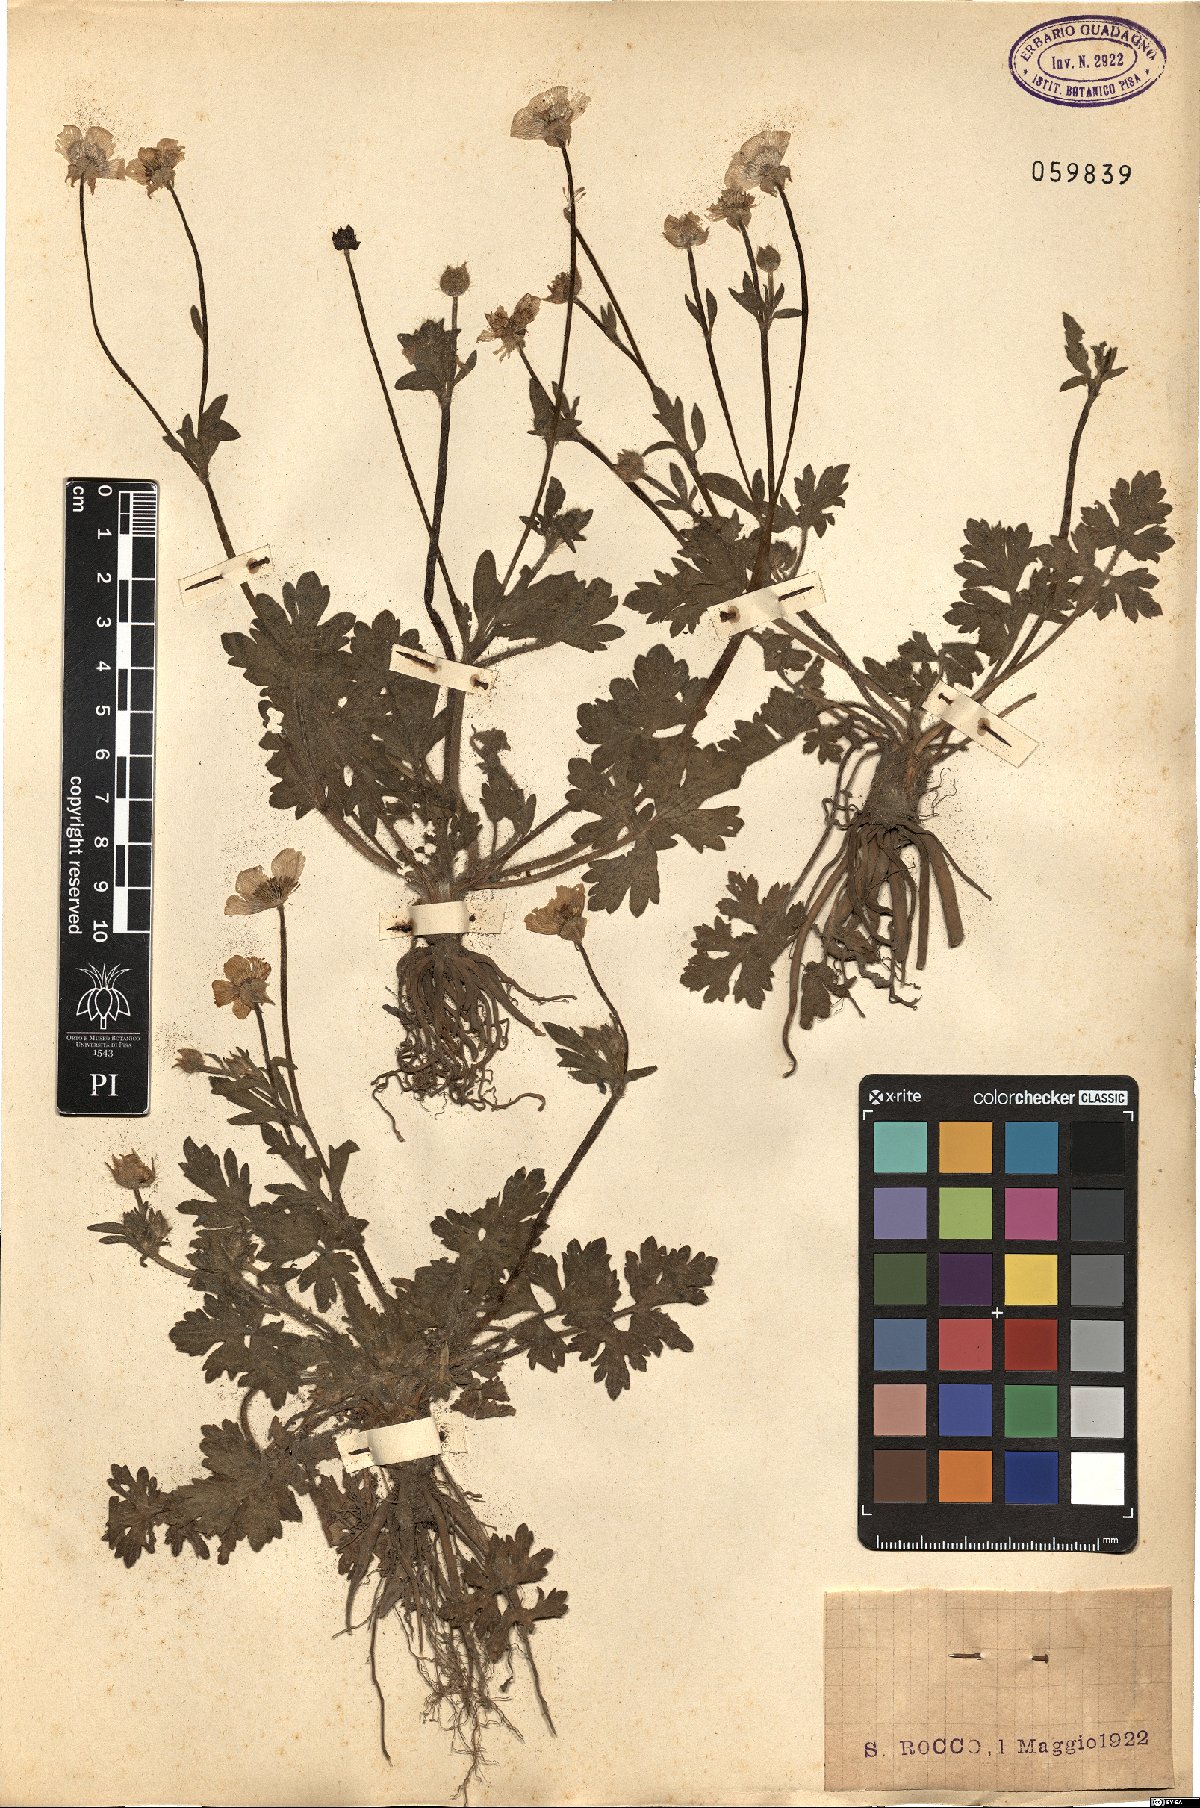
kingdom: Plantae
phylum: Tracheophyta
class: Magnoliopsida
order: Ranunculales
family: Ranunculaceae
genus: Ranunculus
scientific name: Ranunculus
